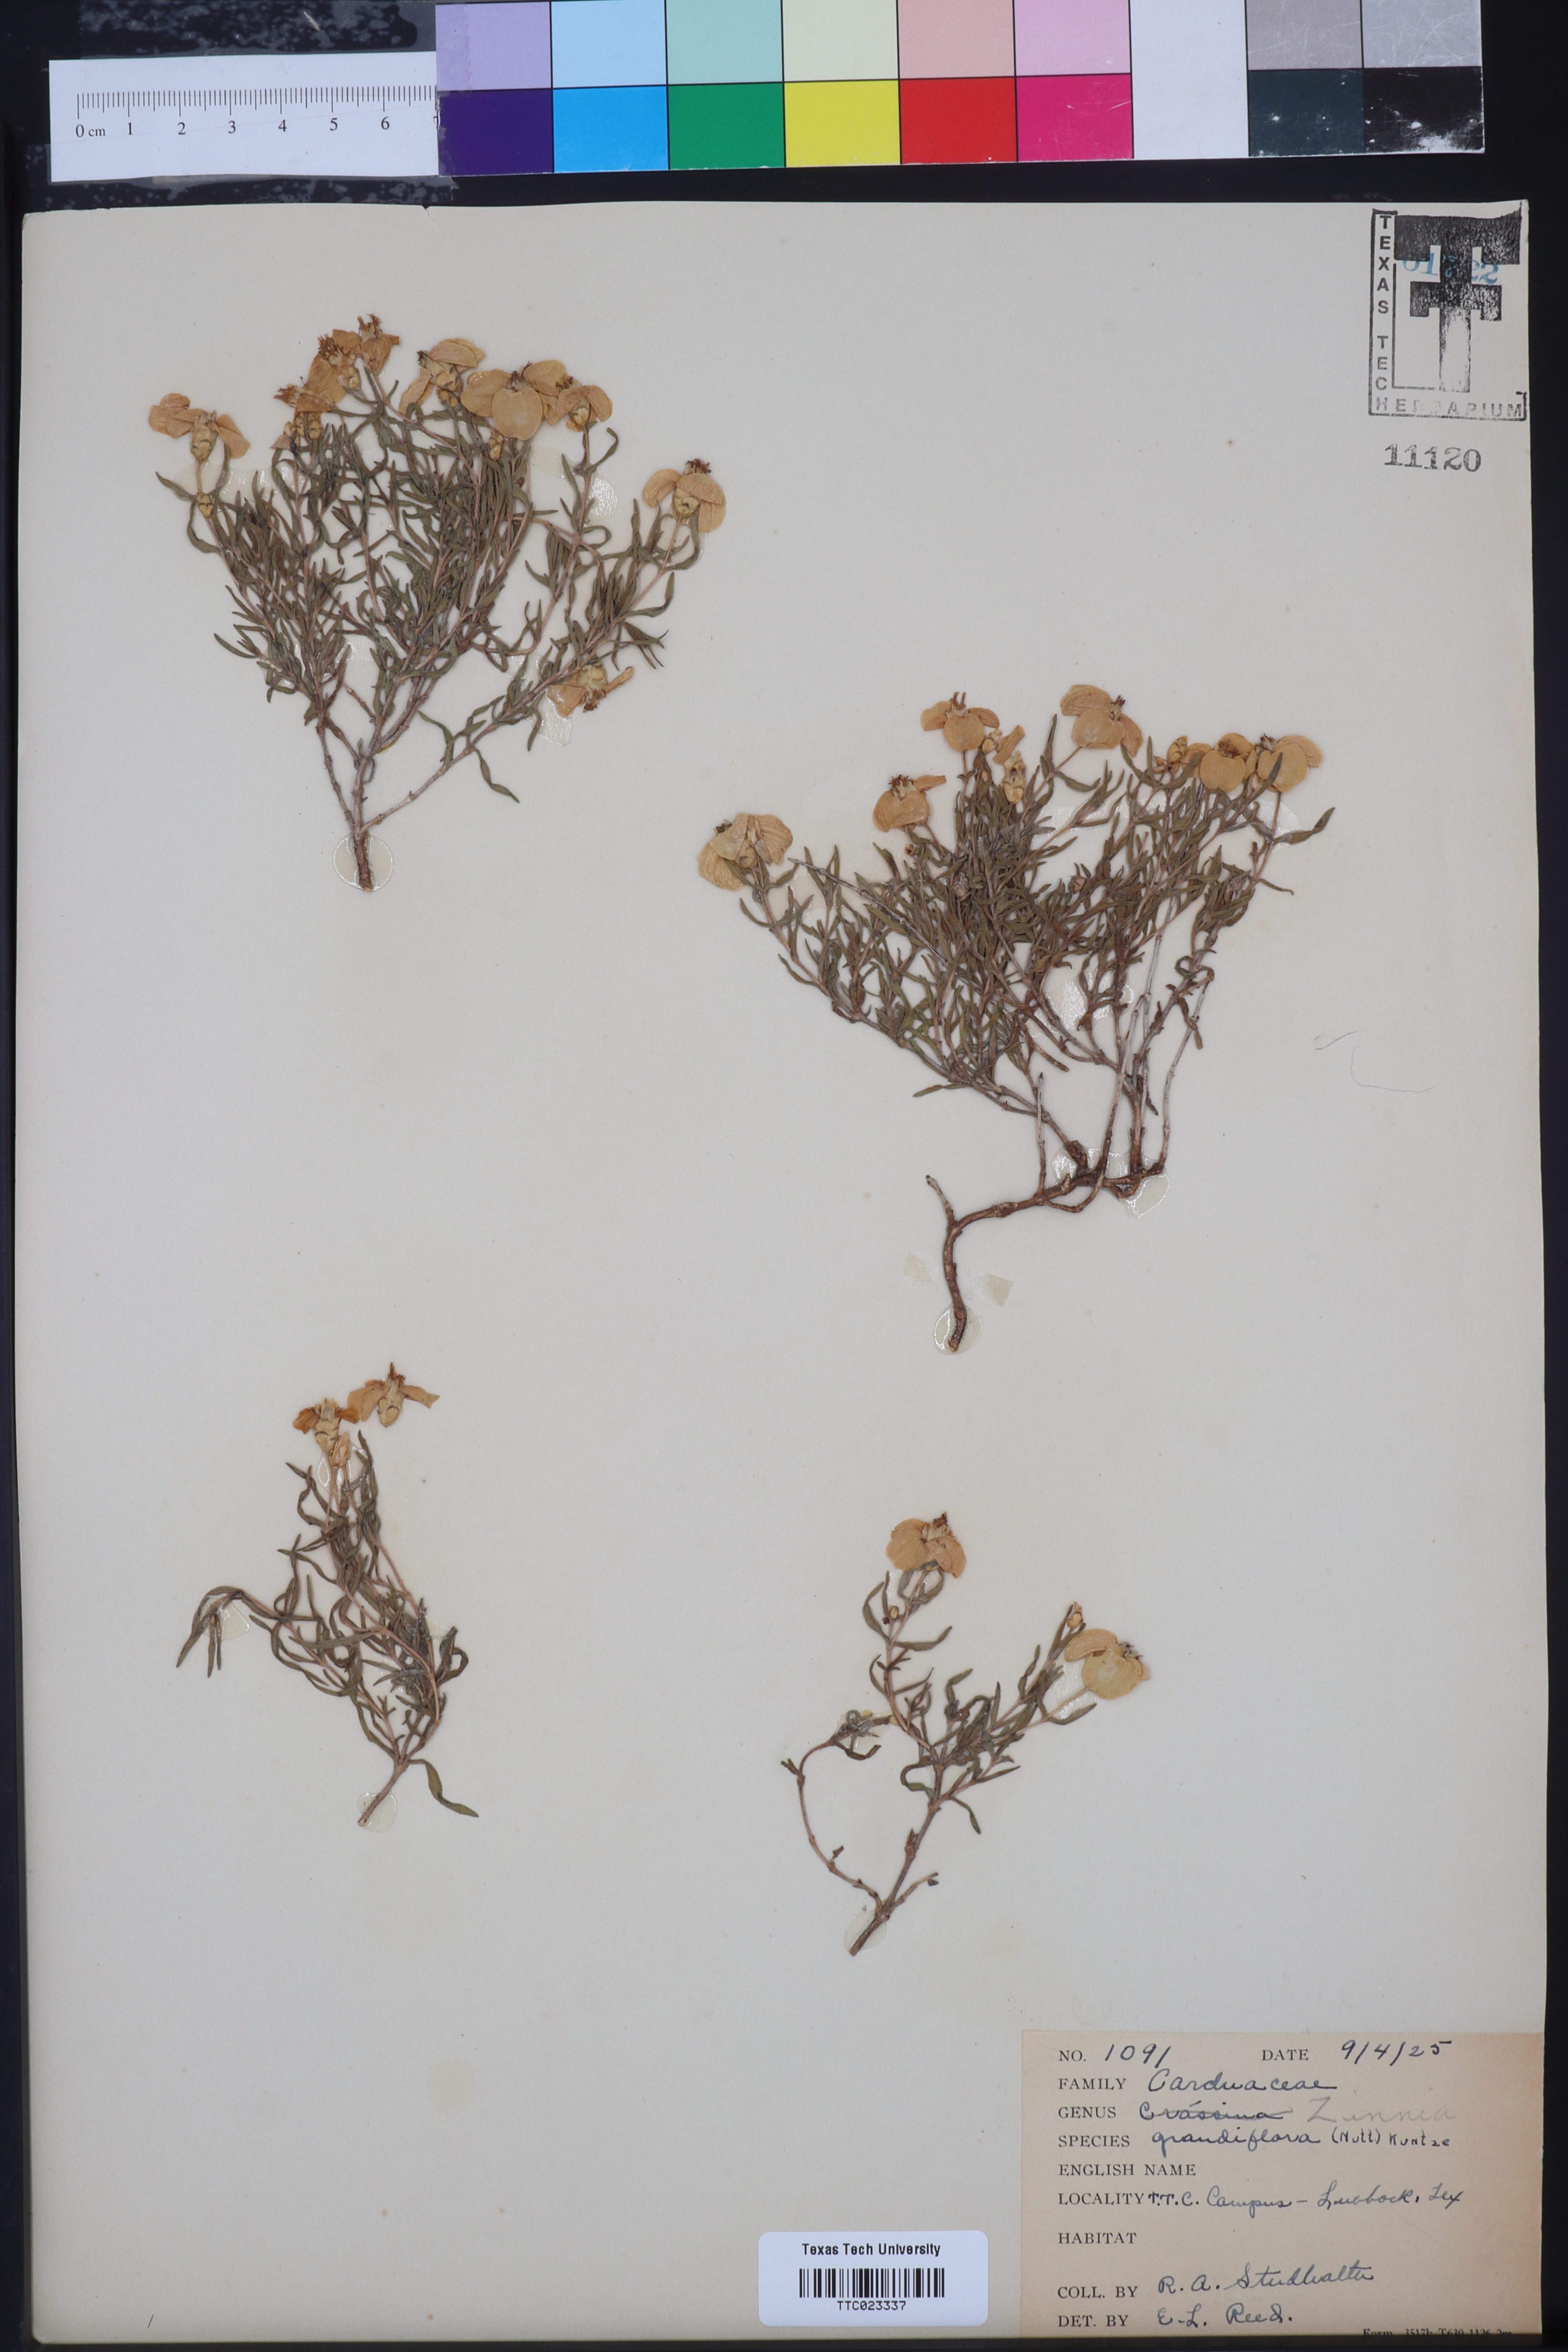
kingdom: Plantae
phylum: Tracheophyta
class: Magnoliopsida
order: Asterales
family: Asteraceae
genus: Zinnia
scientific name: Zinnia grandiflora
